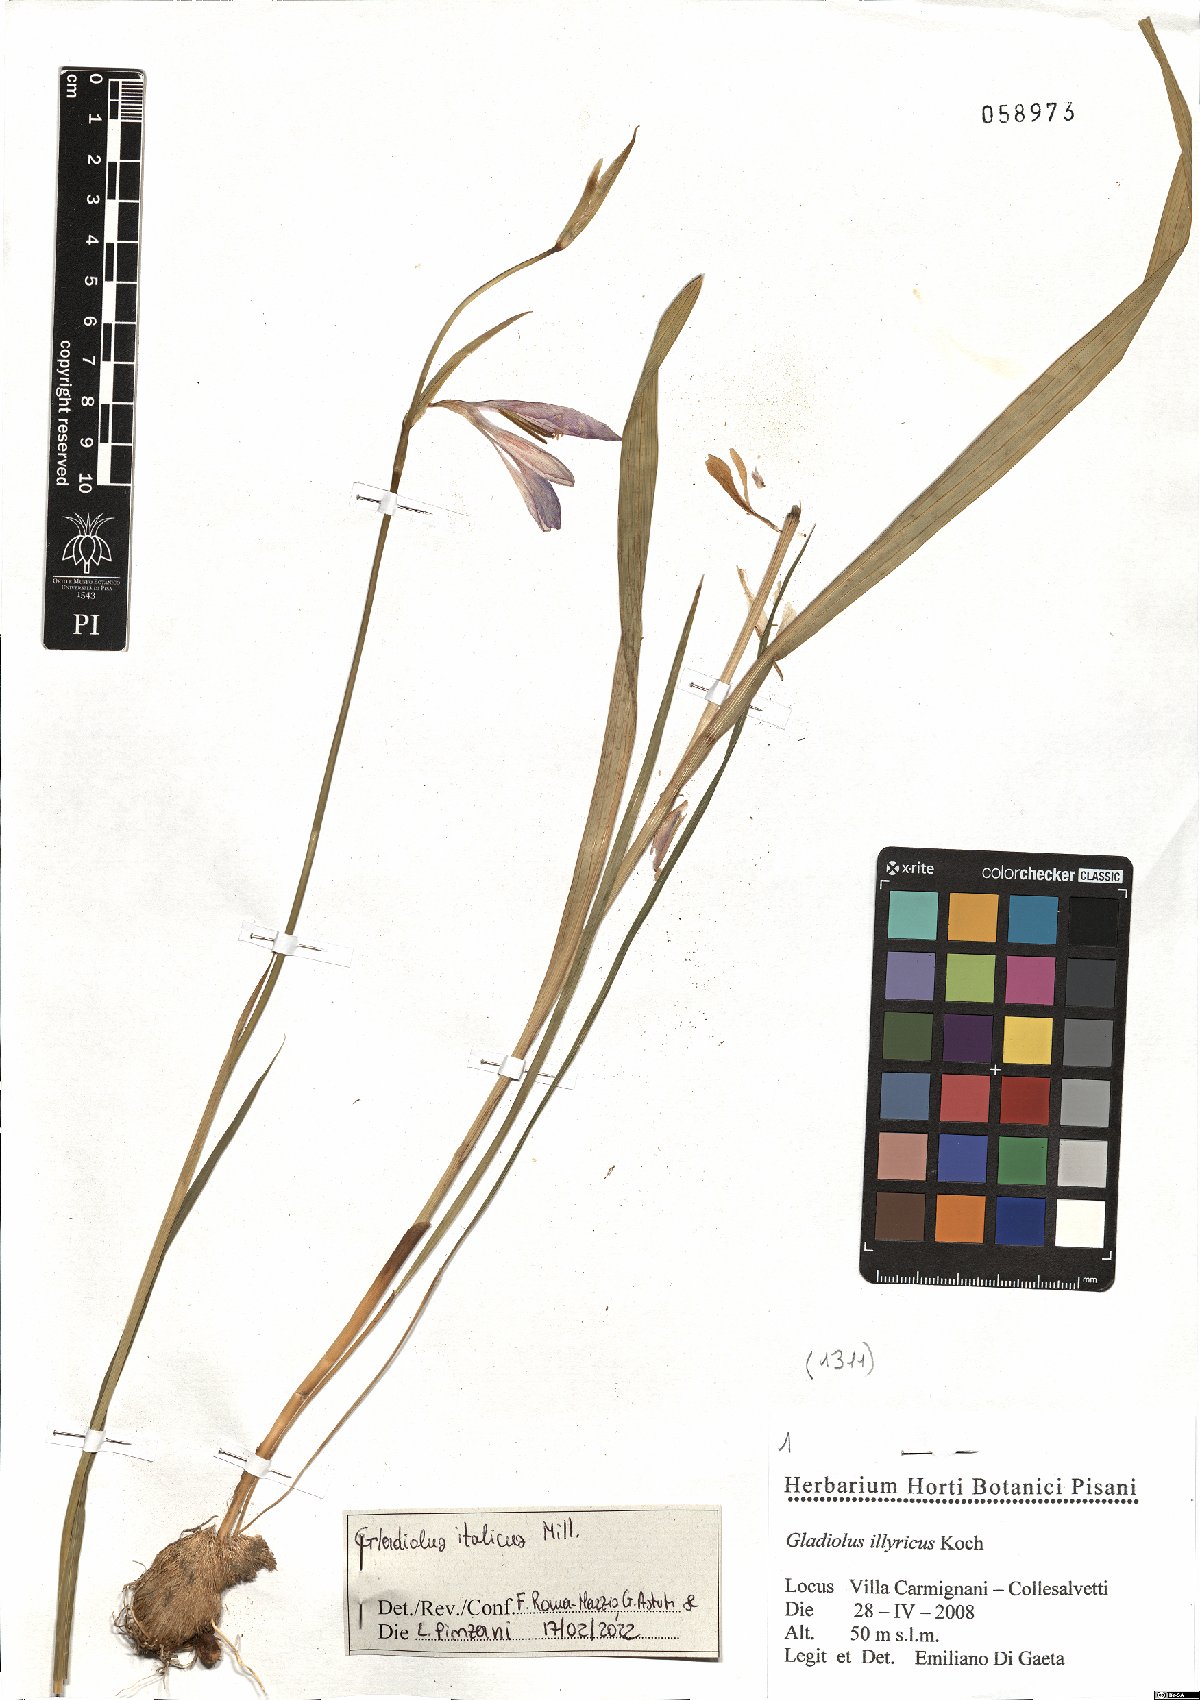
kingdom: Plantae
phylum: Tracheophyta
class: Liliopsida
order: Asparagales
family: Iridaceae
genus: Gladiolus
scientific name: Gladiolus italicus
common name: Field gladiolus
